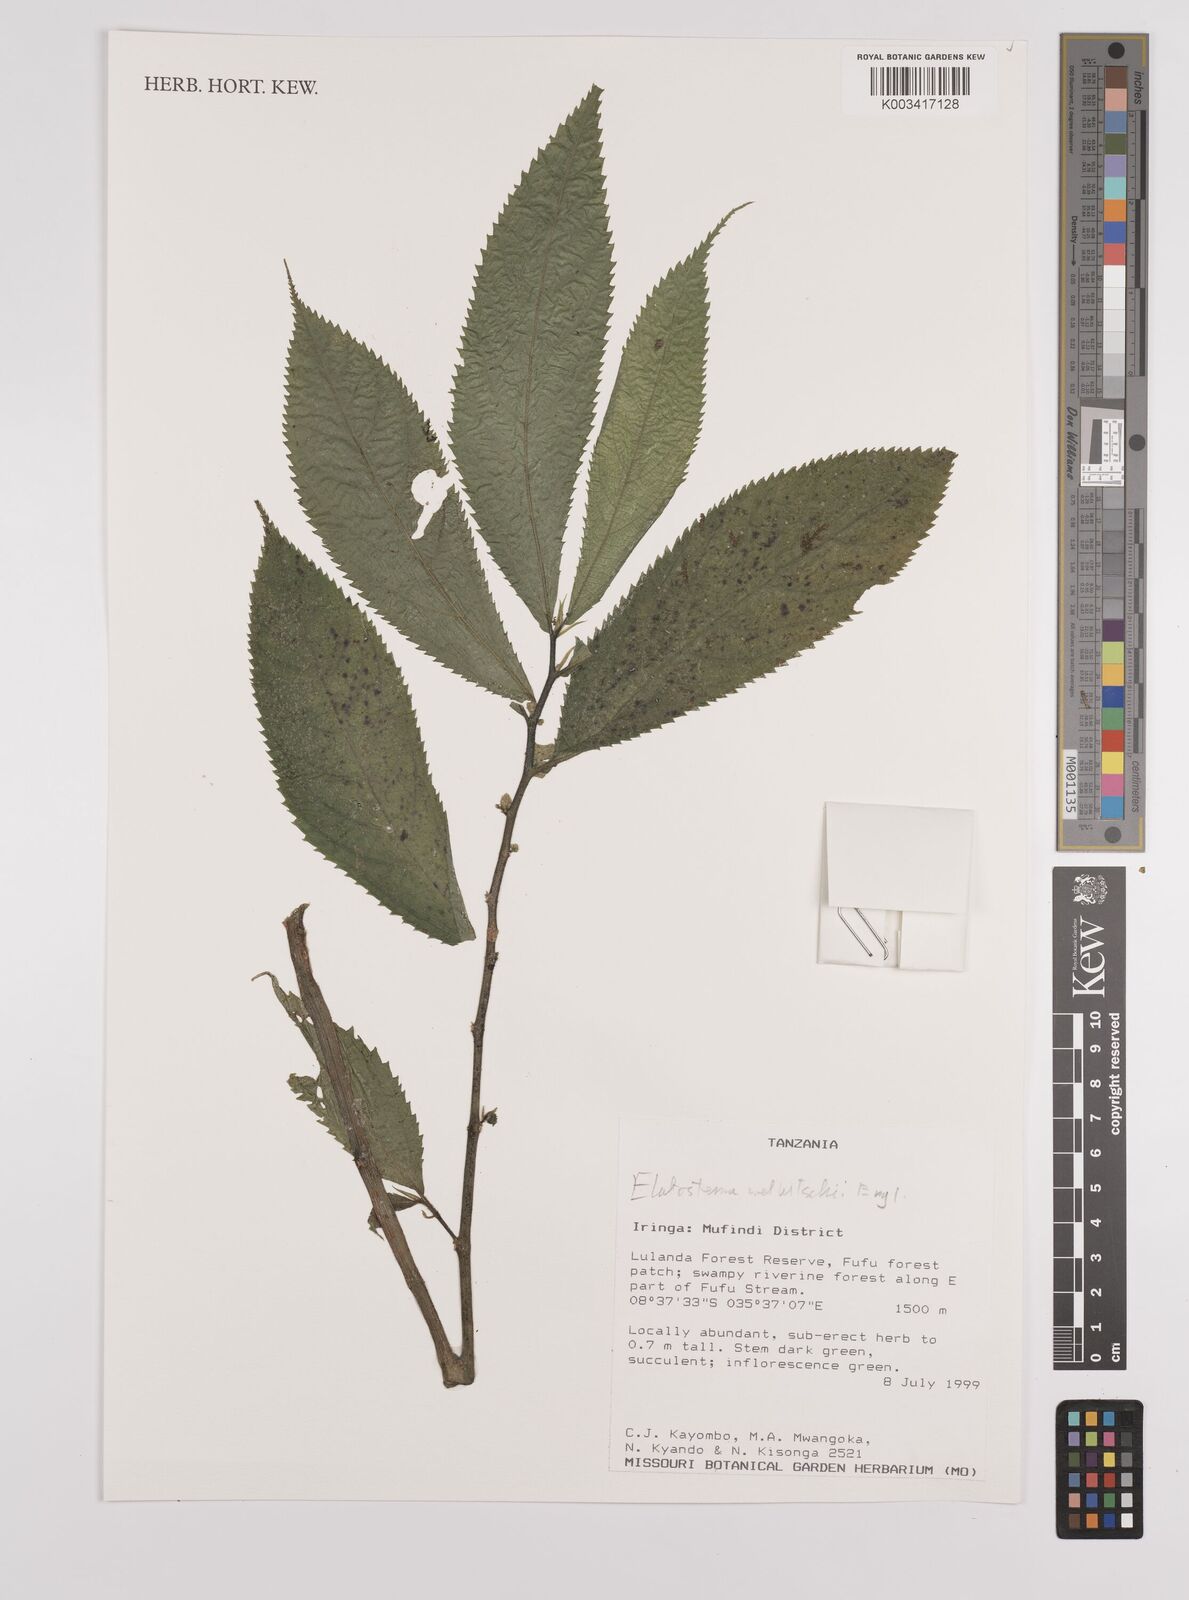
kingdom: Plantae
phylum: Tracheophyta
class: Magnoliopsida
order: Rosales
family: Urticaceae
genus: Elatostema
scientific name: Elatostema welwitschii
